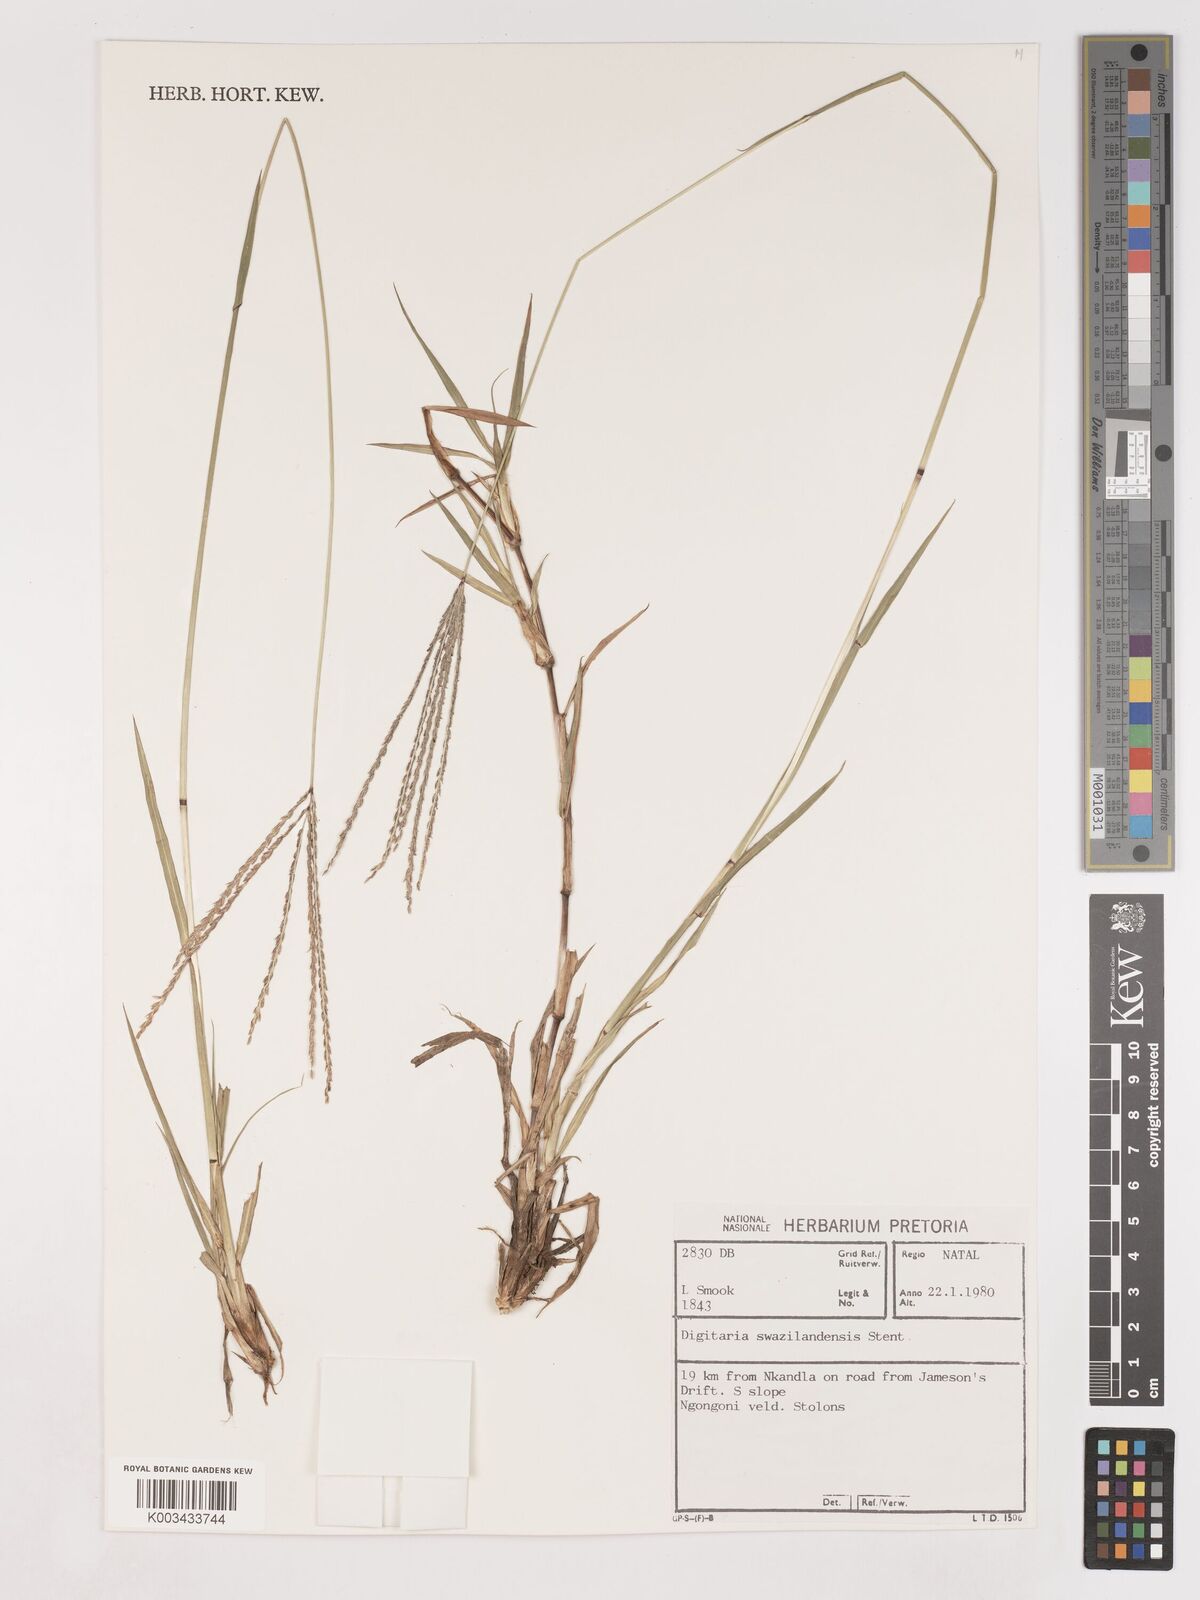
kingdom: Plantae
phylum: Tracheophyta
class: Liliopsida
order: Poales
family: Poaceae
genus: Digitaria
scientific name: Digitaria didactyla
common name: Blue couch
